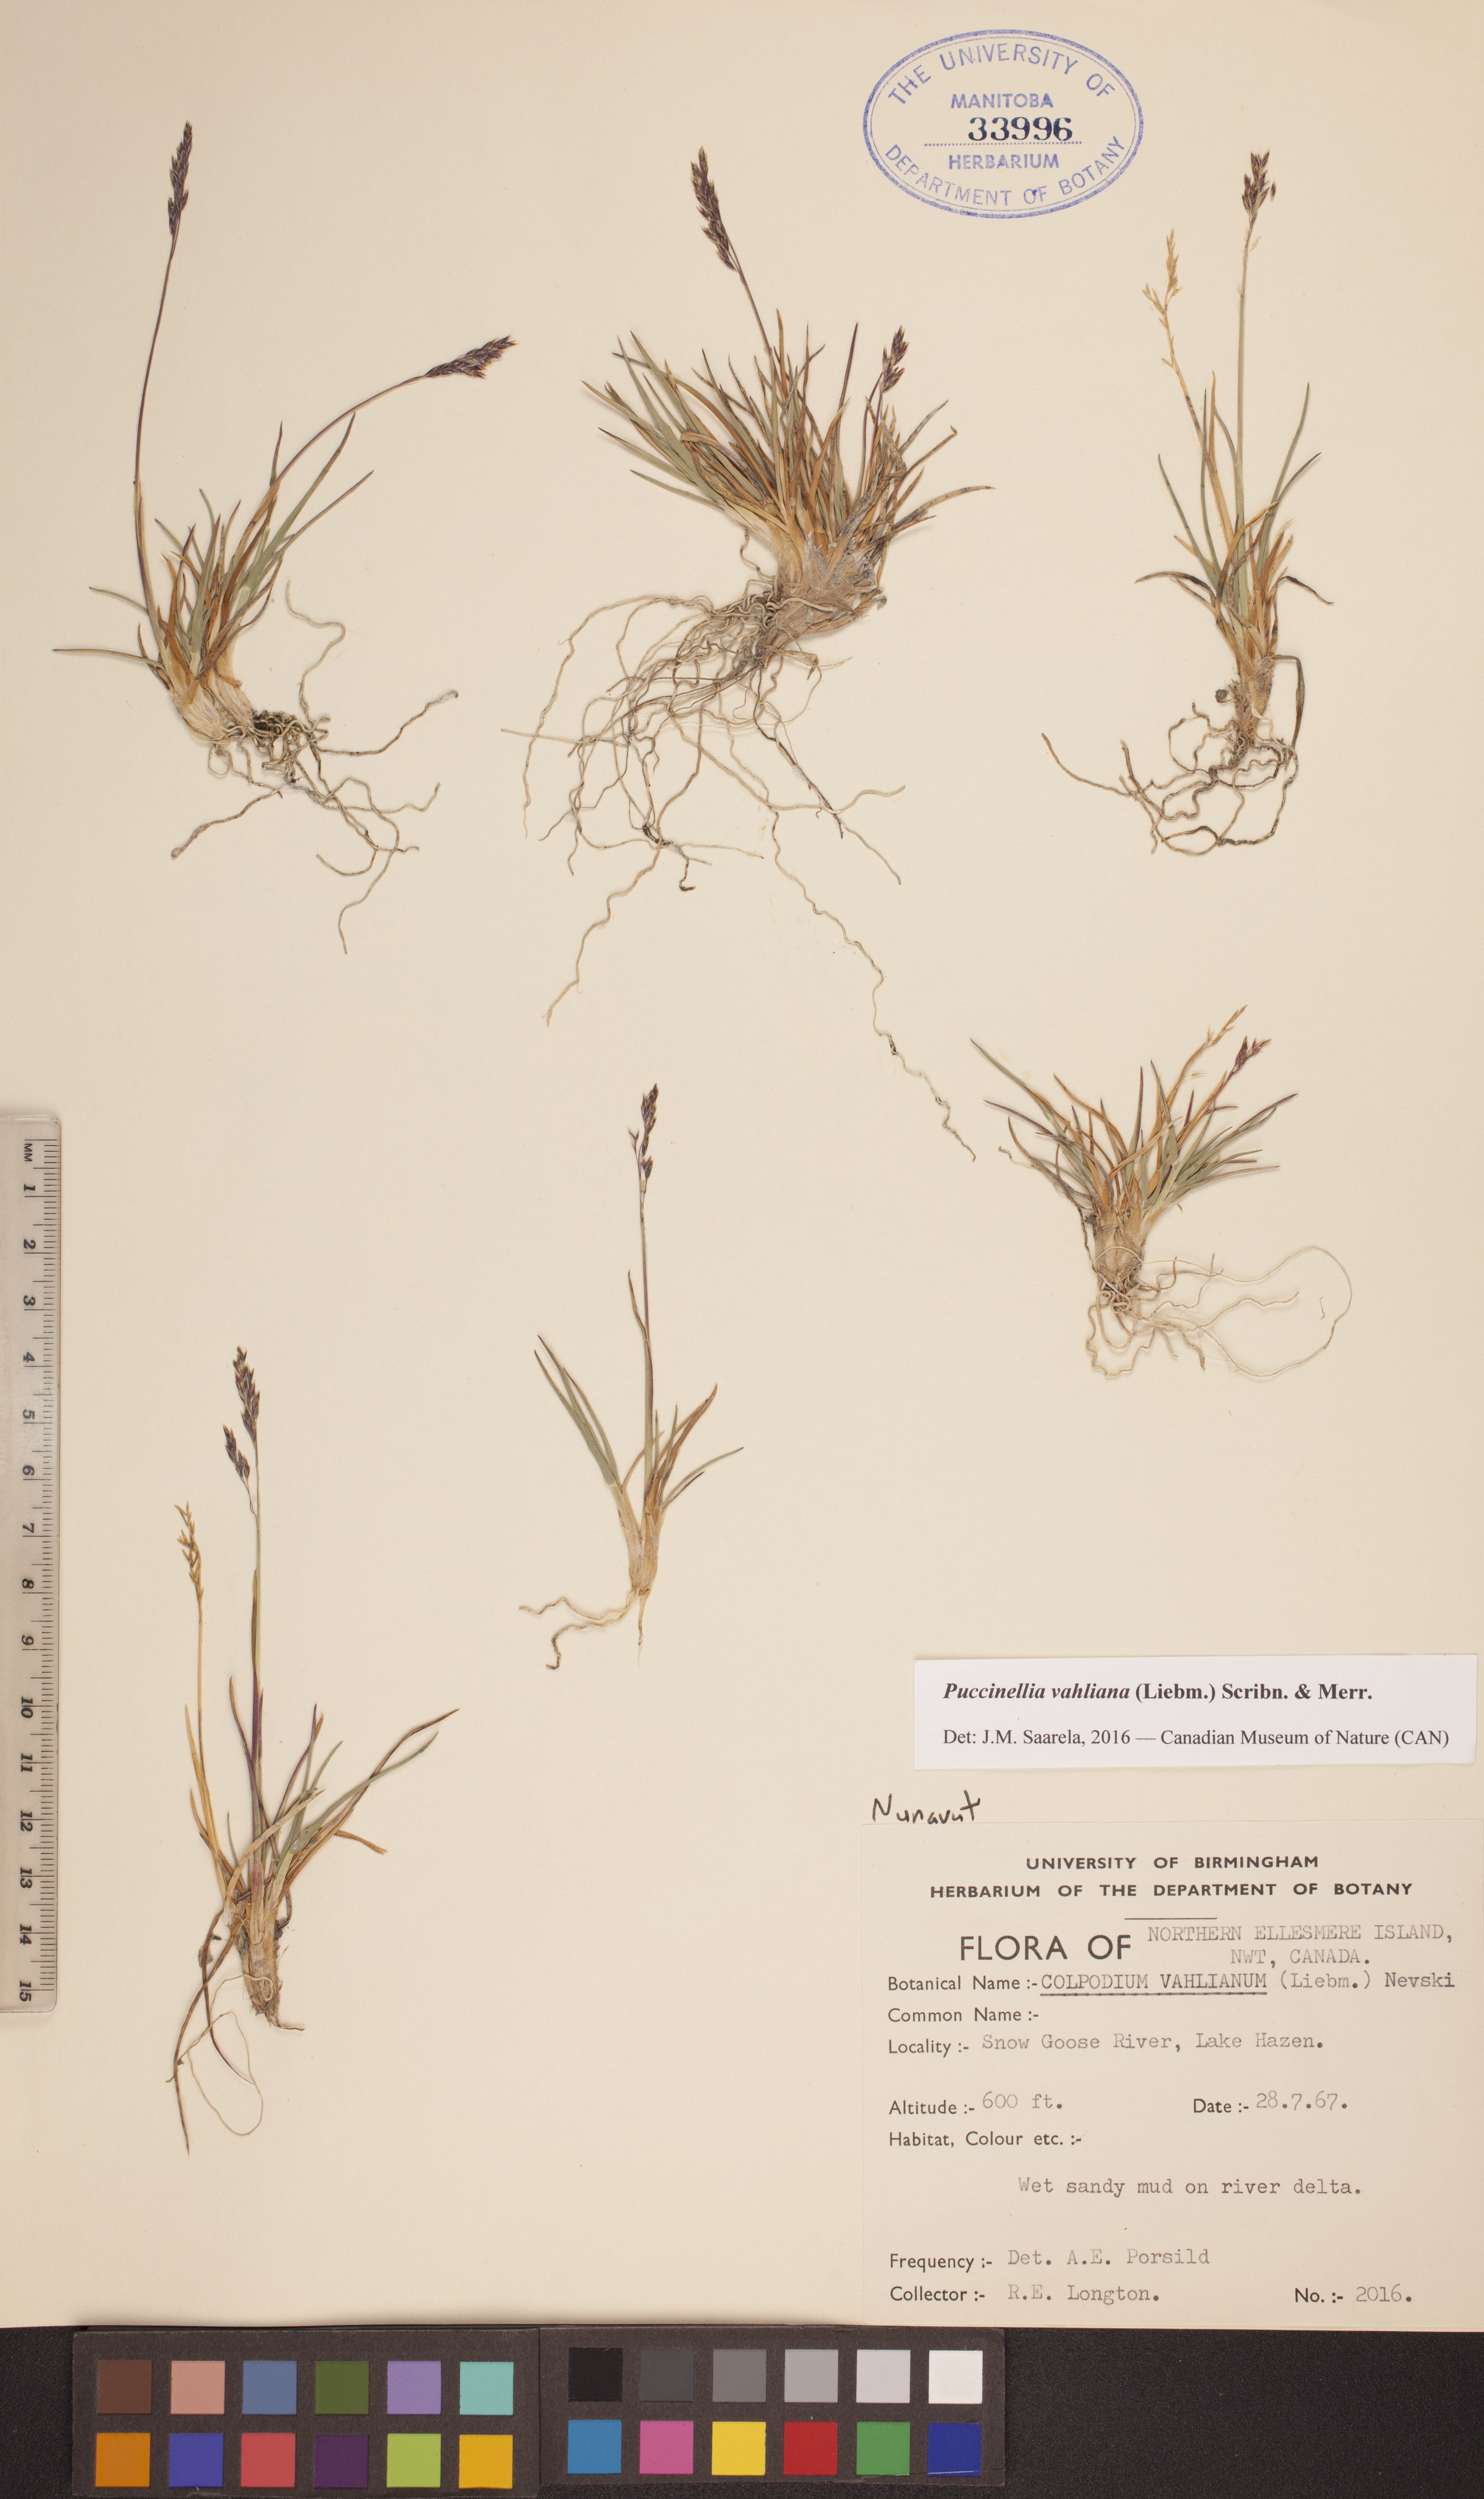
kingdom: Plantae
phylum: Tracheophyta
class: Liliopsida
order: Poales
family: Poaceae
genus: Puccinellia
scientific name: Puccinellia vahliana
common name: Vahl's alkaligrass
